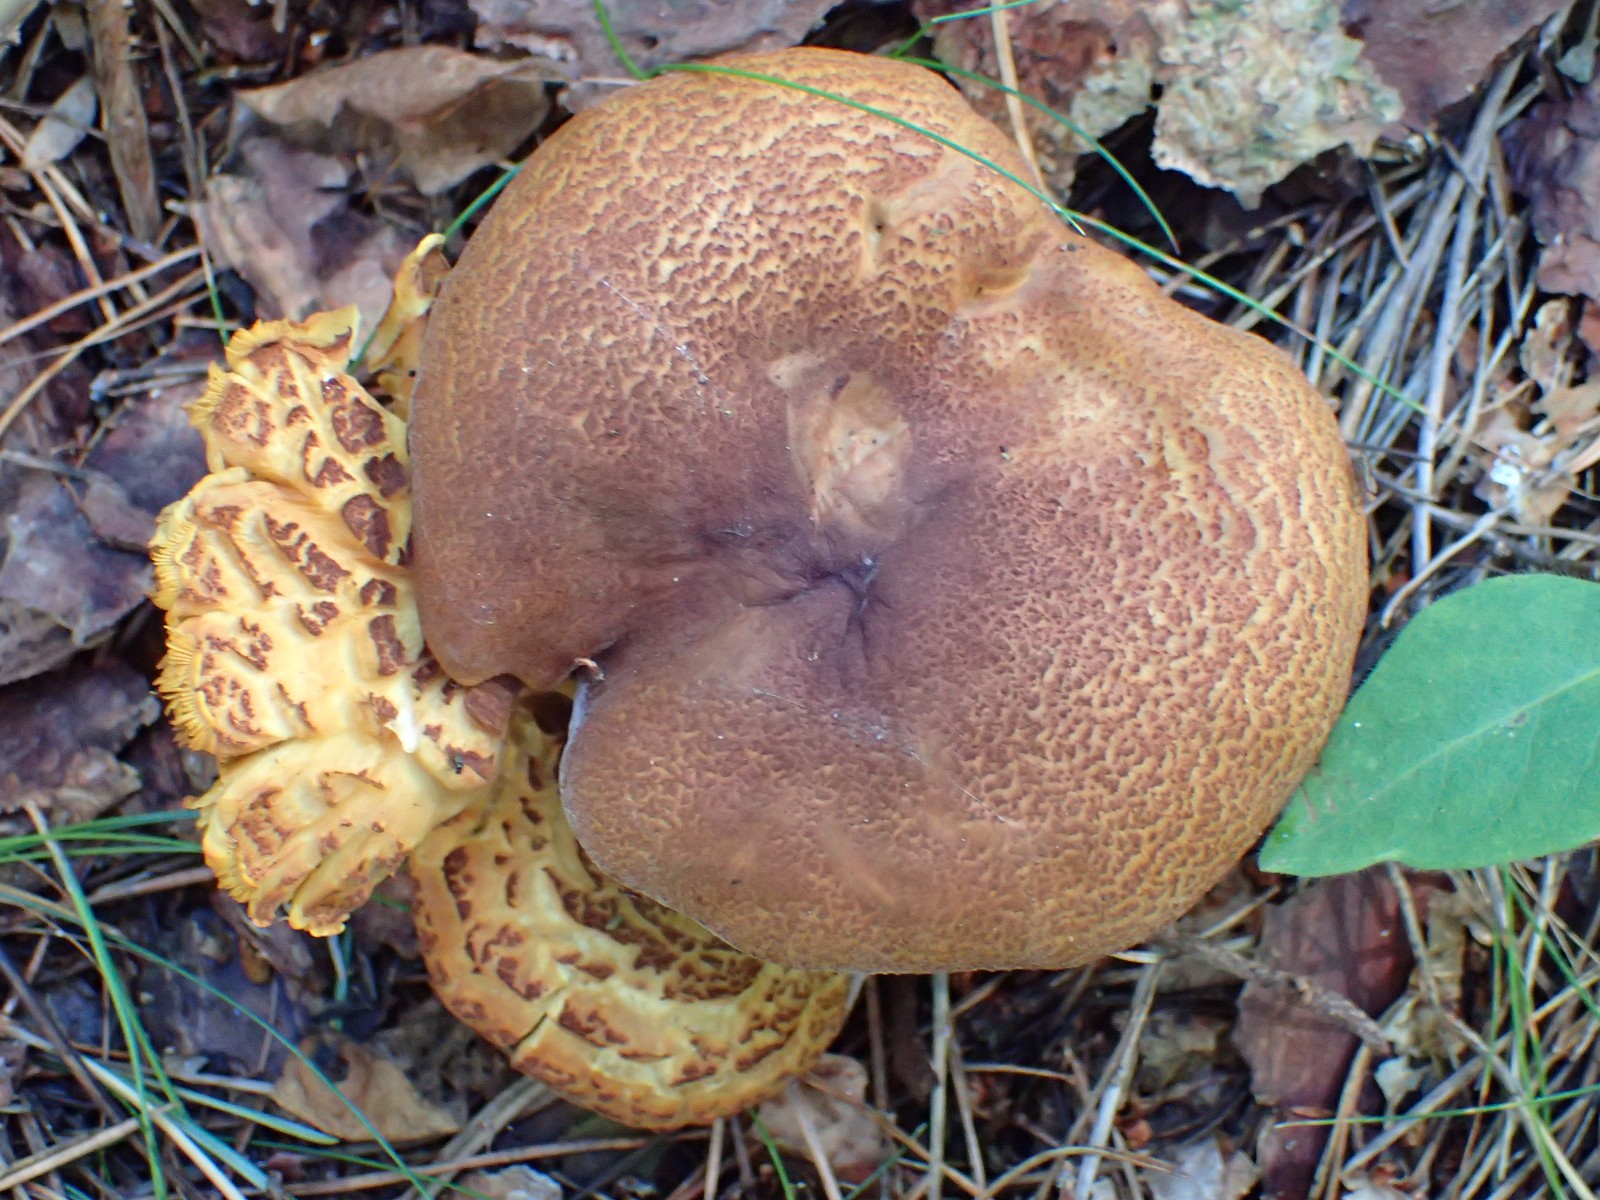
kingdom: Fungi
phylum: Basidiomycota
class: Agaricomycetes
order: Agaricales
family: Tricholomataceae
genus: Tricholomopsis
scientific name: Tricholomopsis rutilans
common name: purpur-væbnerhat
